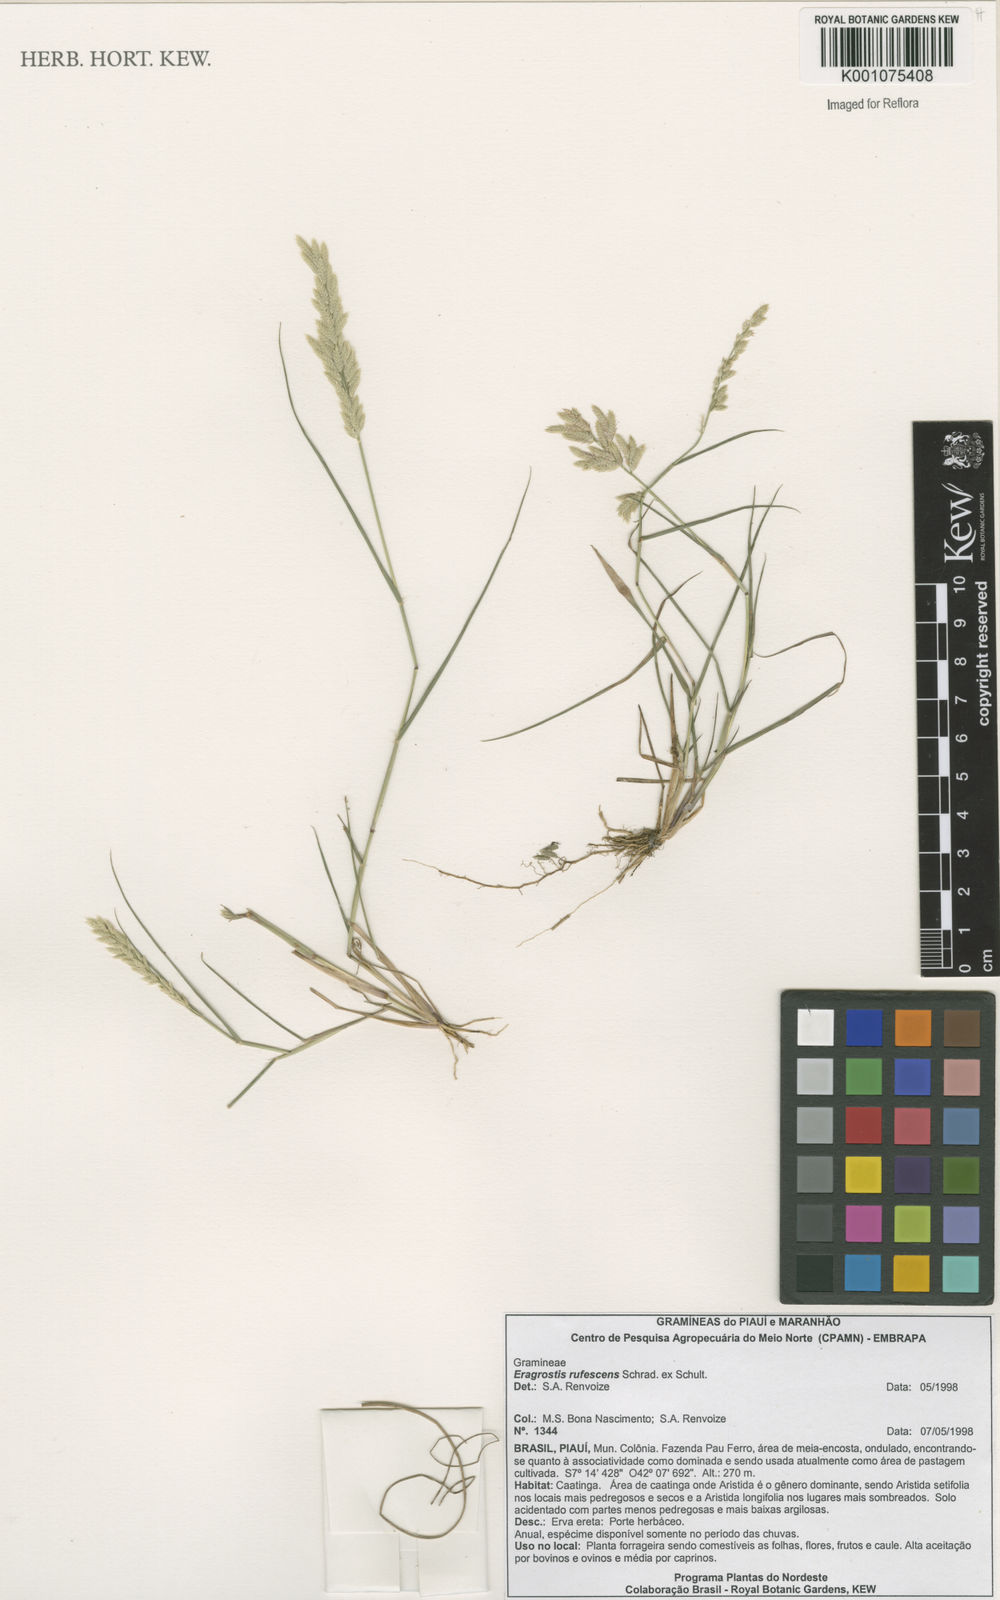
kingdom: Plantae
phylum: Tracheophyta
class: Liliopsida
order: Poales
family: Poaceae
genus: Eragrostis
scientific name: Eragrostis rufescens
